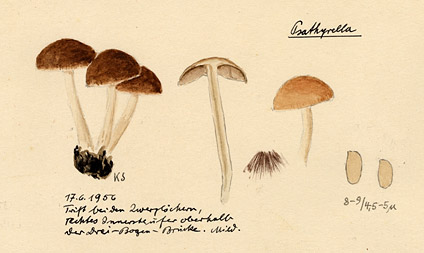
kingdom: Fungi
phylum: Basidiomycota
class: Agaricomycetes
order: Agaricales
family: Psathyrellaceae
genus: Psathyrella
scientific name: Psathyrella
